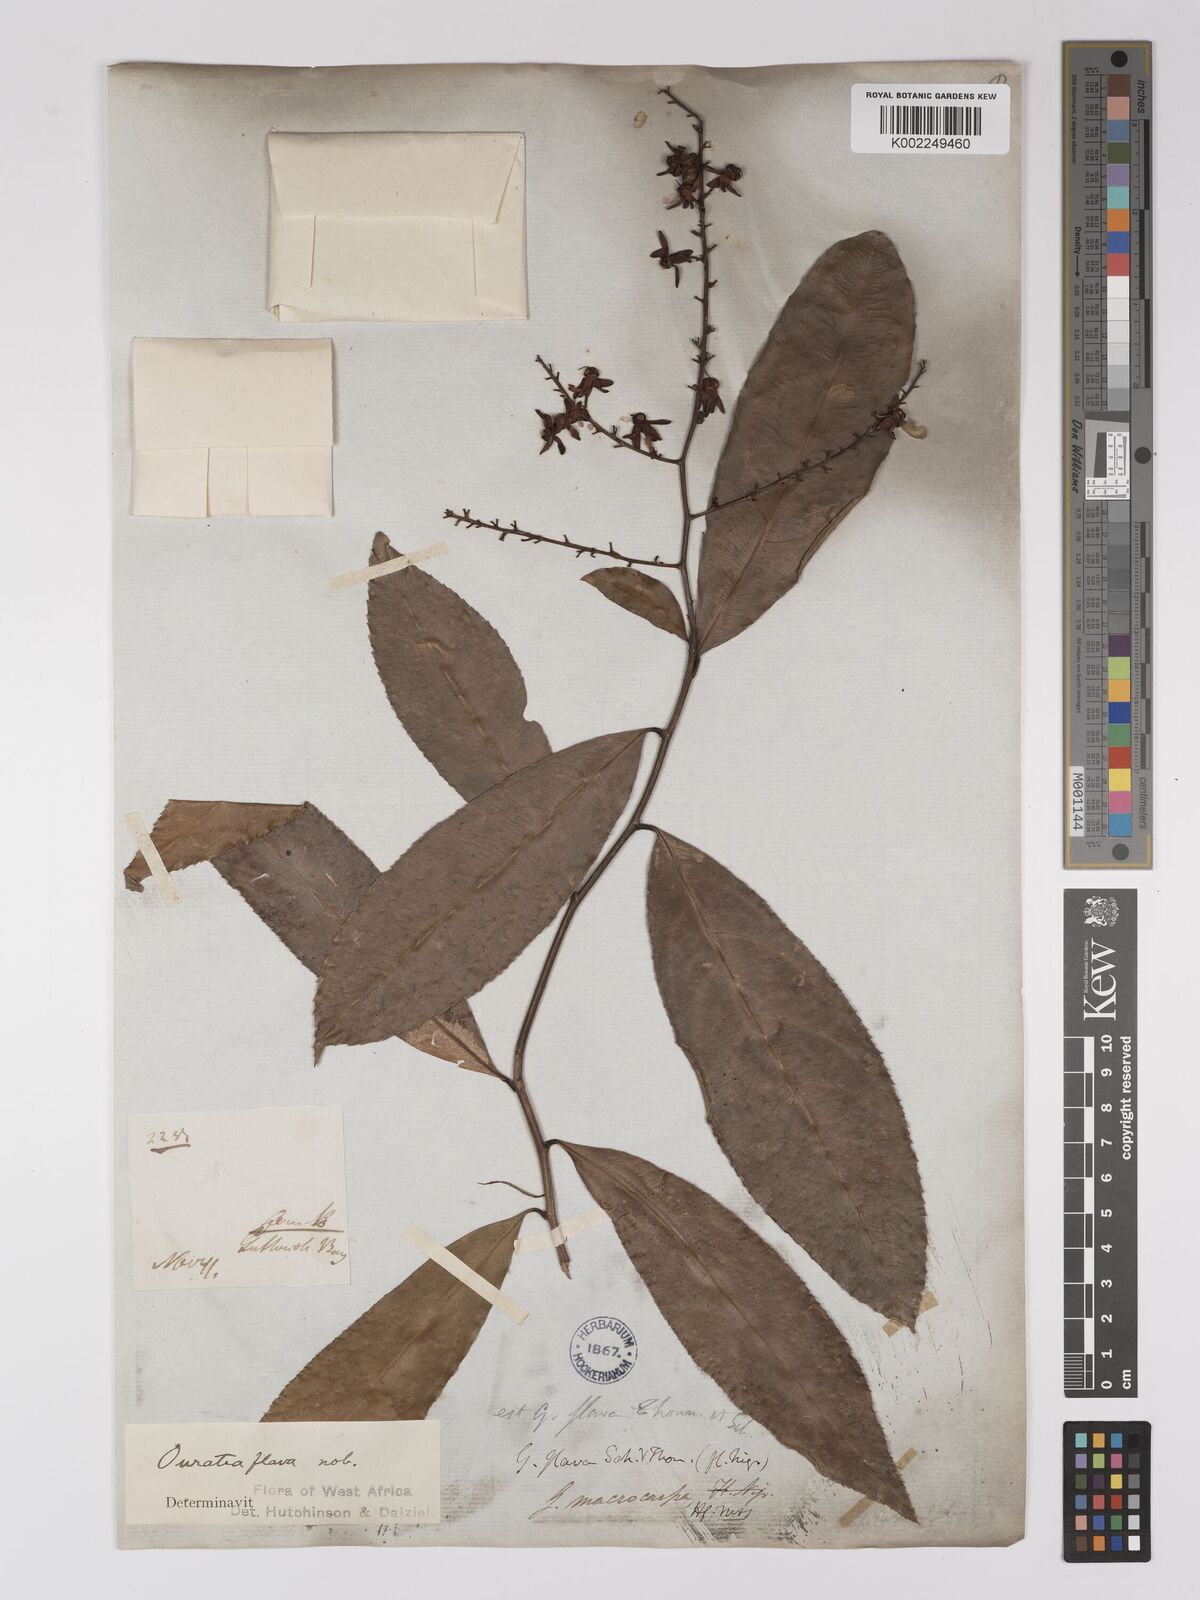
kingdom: Plantae
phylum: Tracheophyta
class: Magnoliopsida
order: Malpighiales
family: Ochnaceae
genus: Campylospermum
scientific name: Campylospermum flavum
